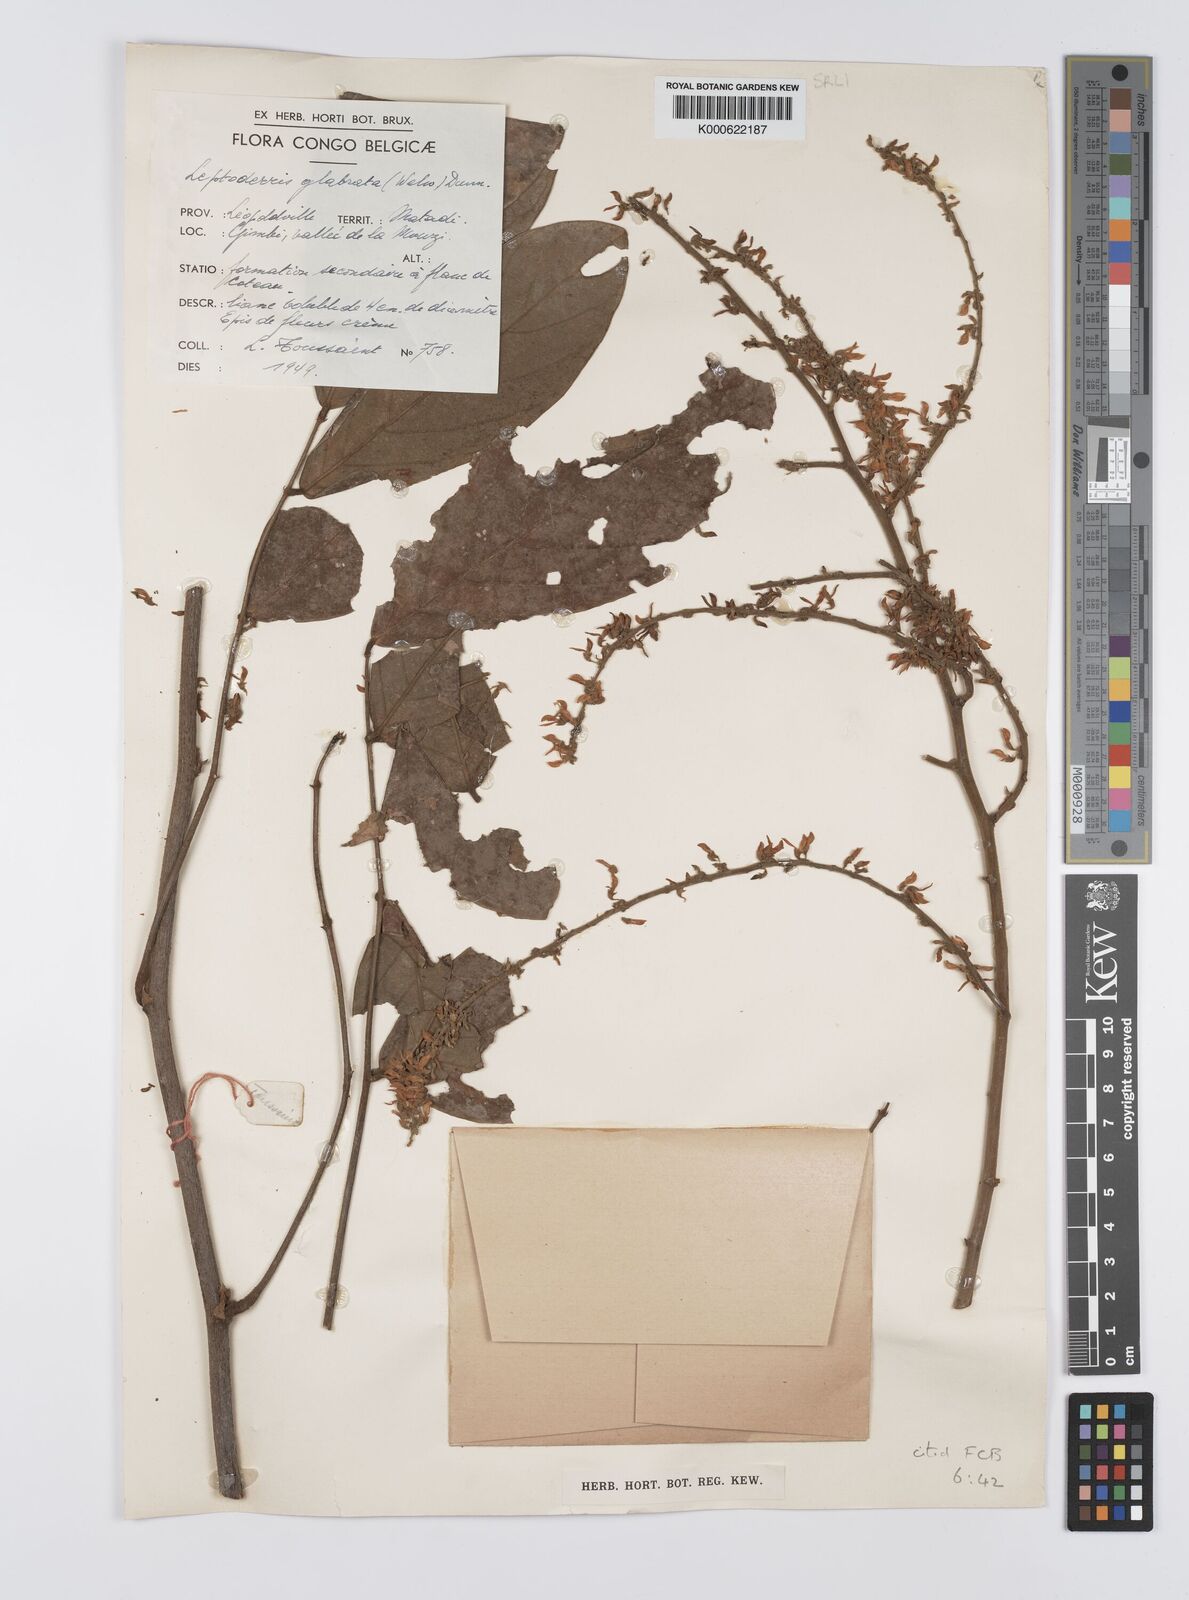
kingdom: Plantae
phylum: Tracheophyta
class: Magnoliopsida
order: Fabales
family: Fabaceae
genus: Leptoderris
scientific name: Leptoderris glabrata
